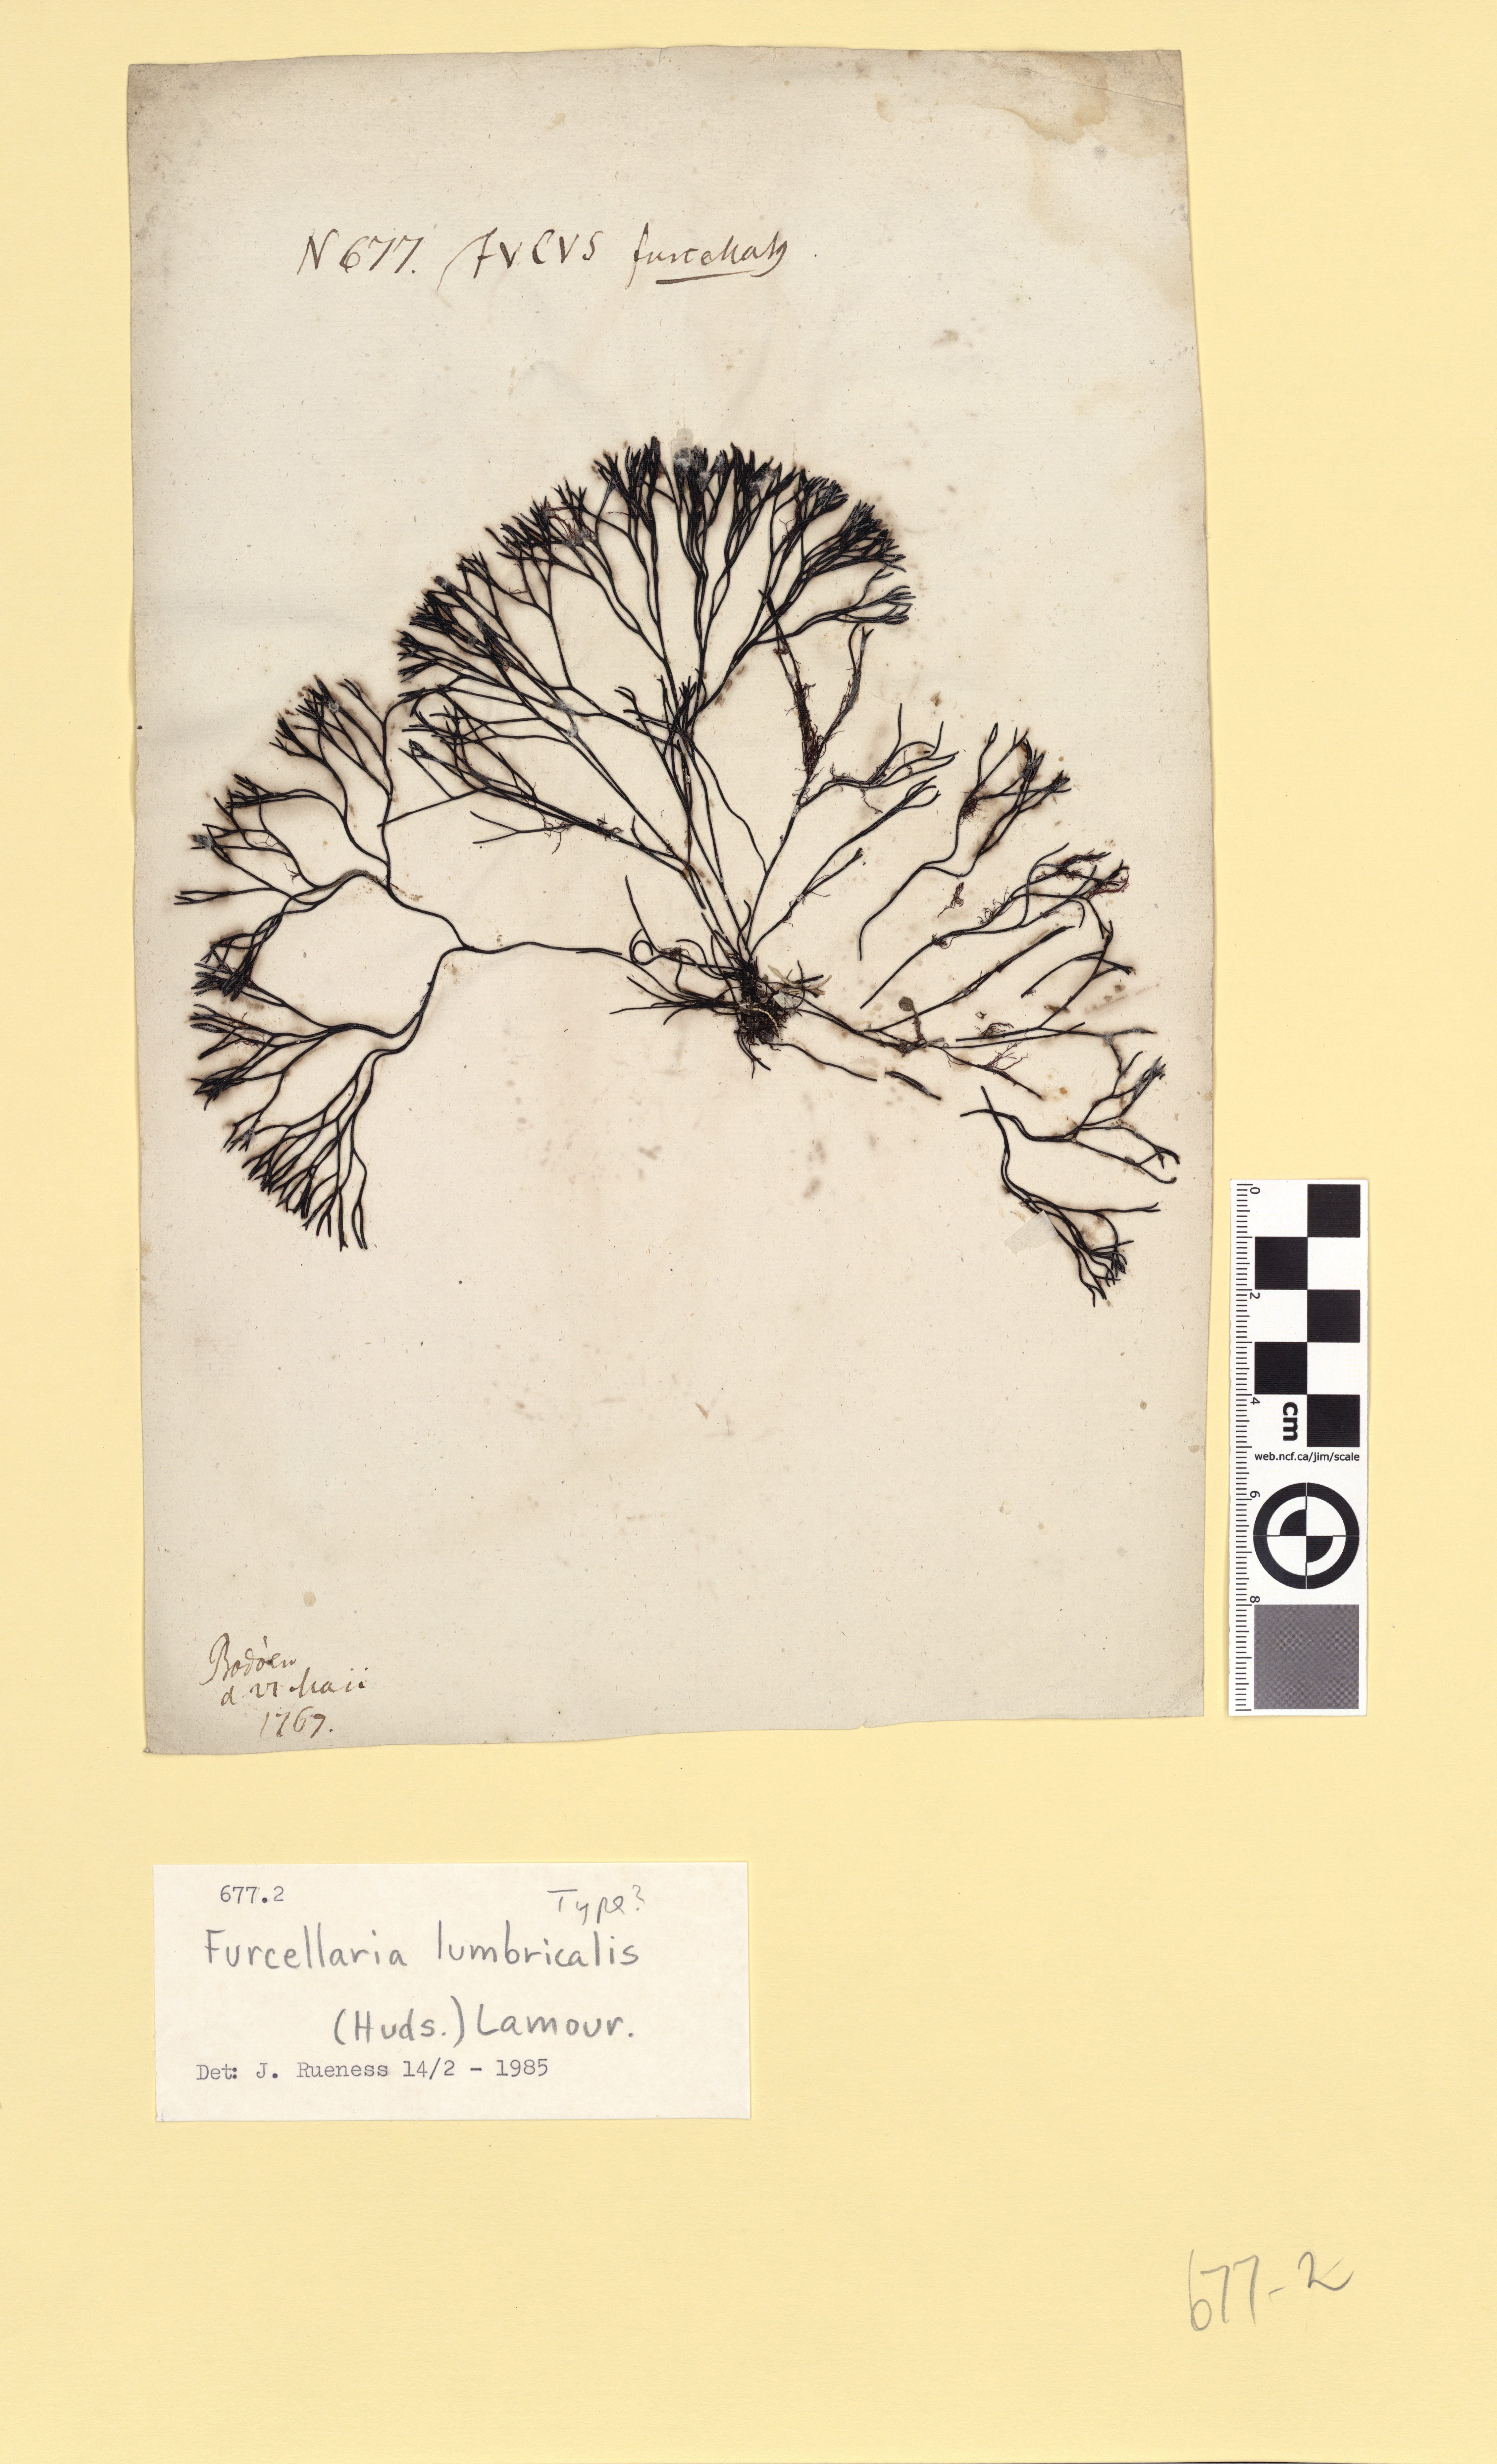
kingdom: Plantae
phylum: Rhodophyta
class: Florideophyceae
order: Gigartinales
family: Furcellariaceae
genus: Furcellaria
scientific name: Furcellaria lumbricalis
